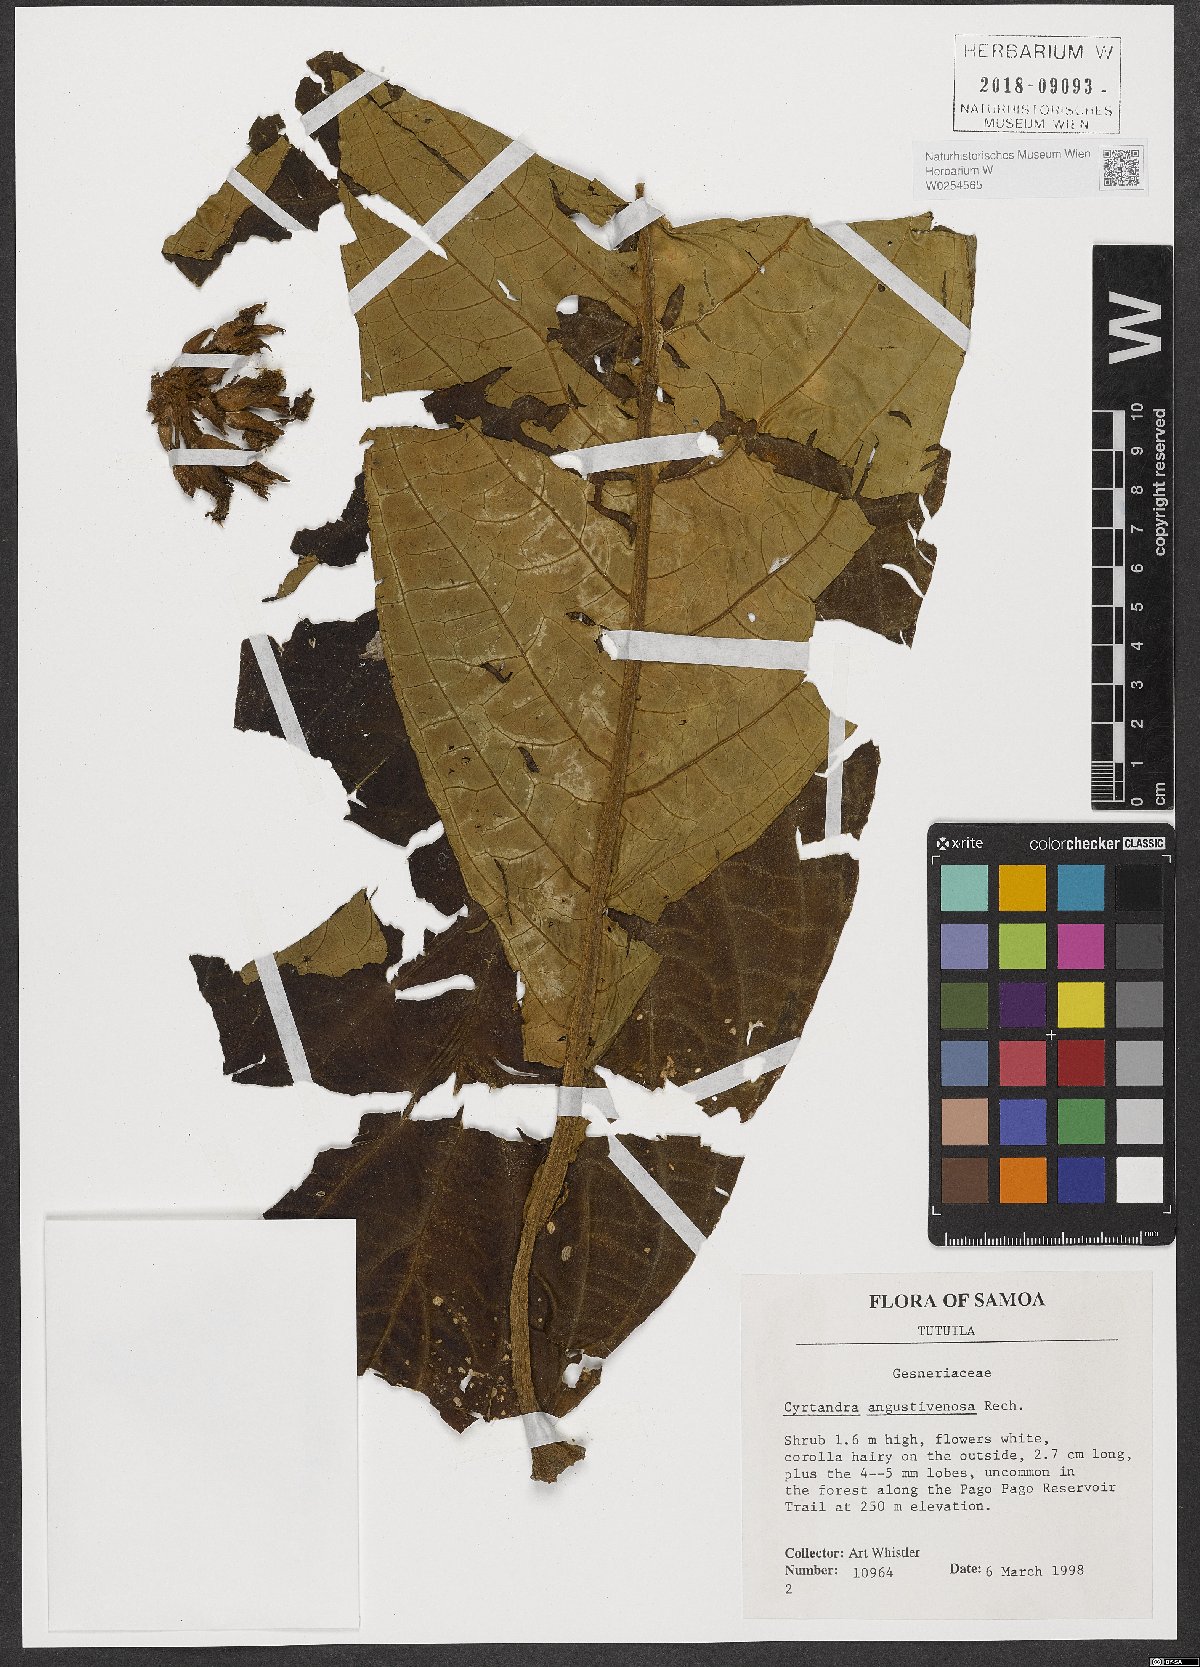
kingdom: Plantae
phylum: Tracheophyta
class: Magnoliopsida
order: Lamiales
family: Gesneriaceae
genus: Cyrtandra
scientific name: Cyrtandra angustivenosa
